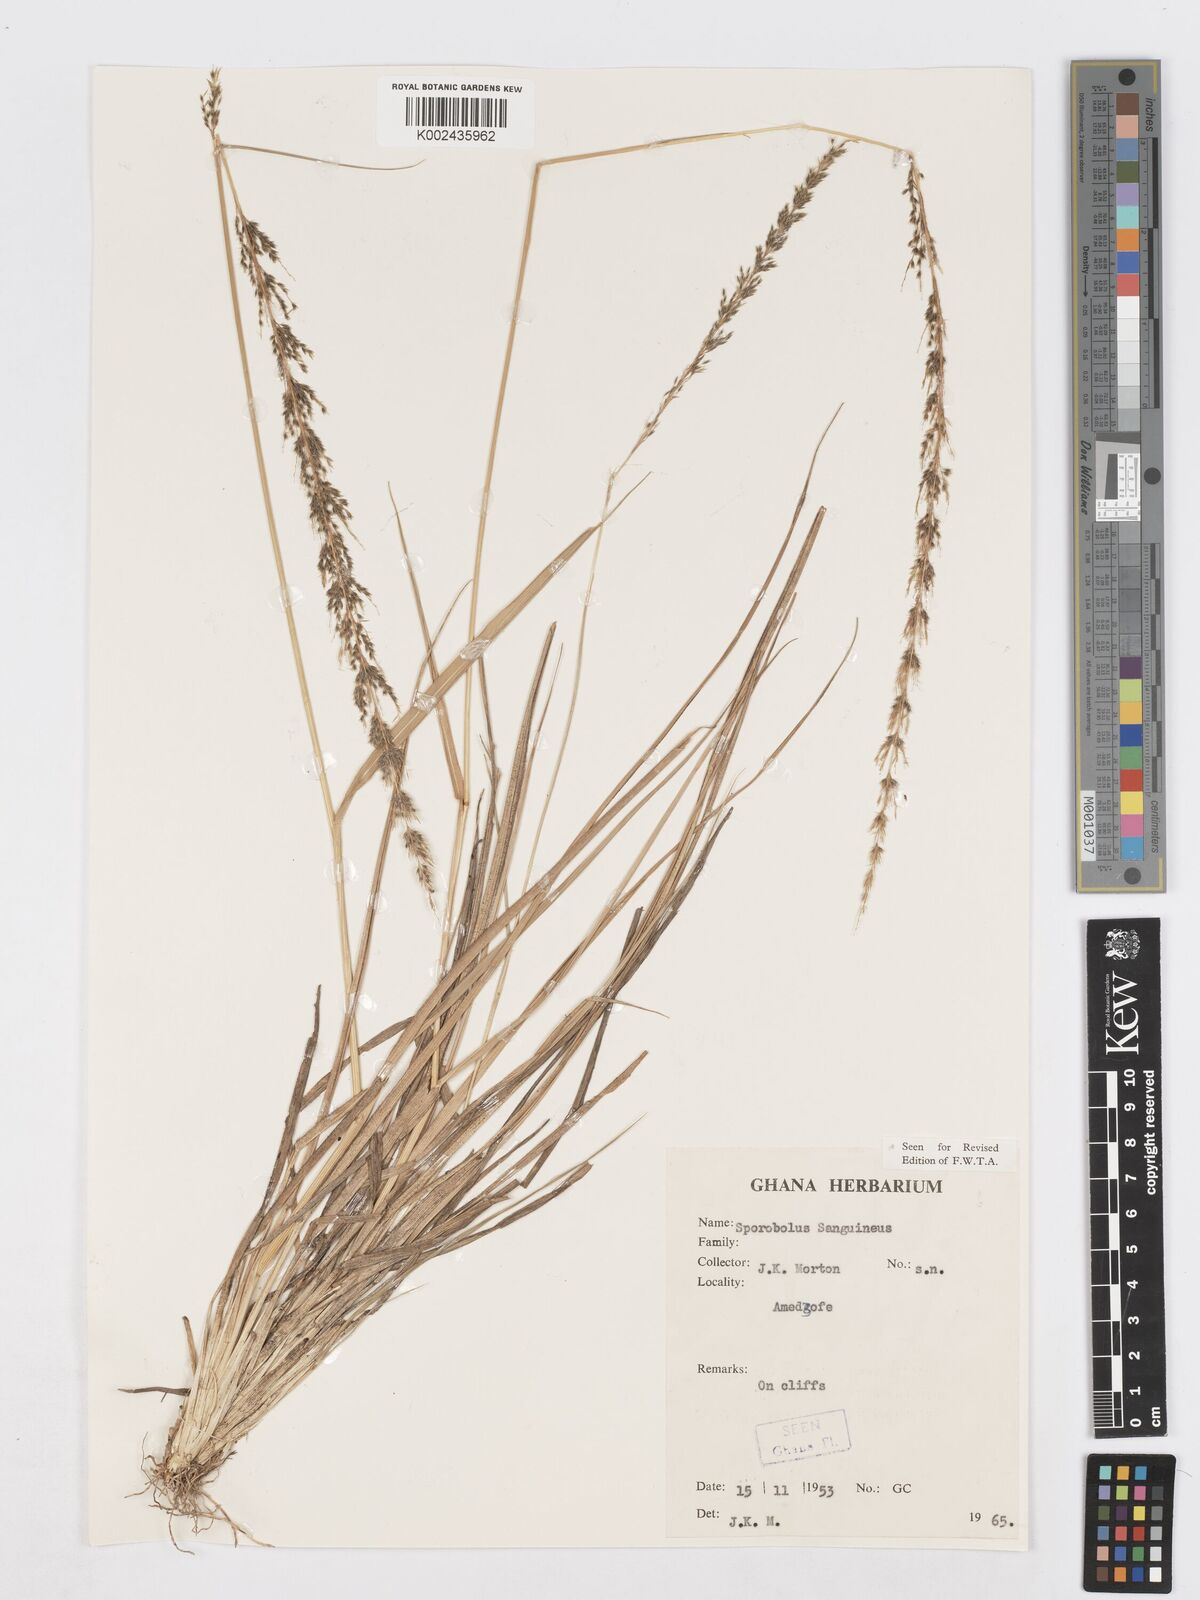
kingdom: Plantae
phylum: Tracheophyta
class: Liliopsida
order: Poales
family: Poaceae
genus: Sporobolus
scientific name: Sporobolus sanguineus
